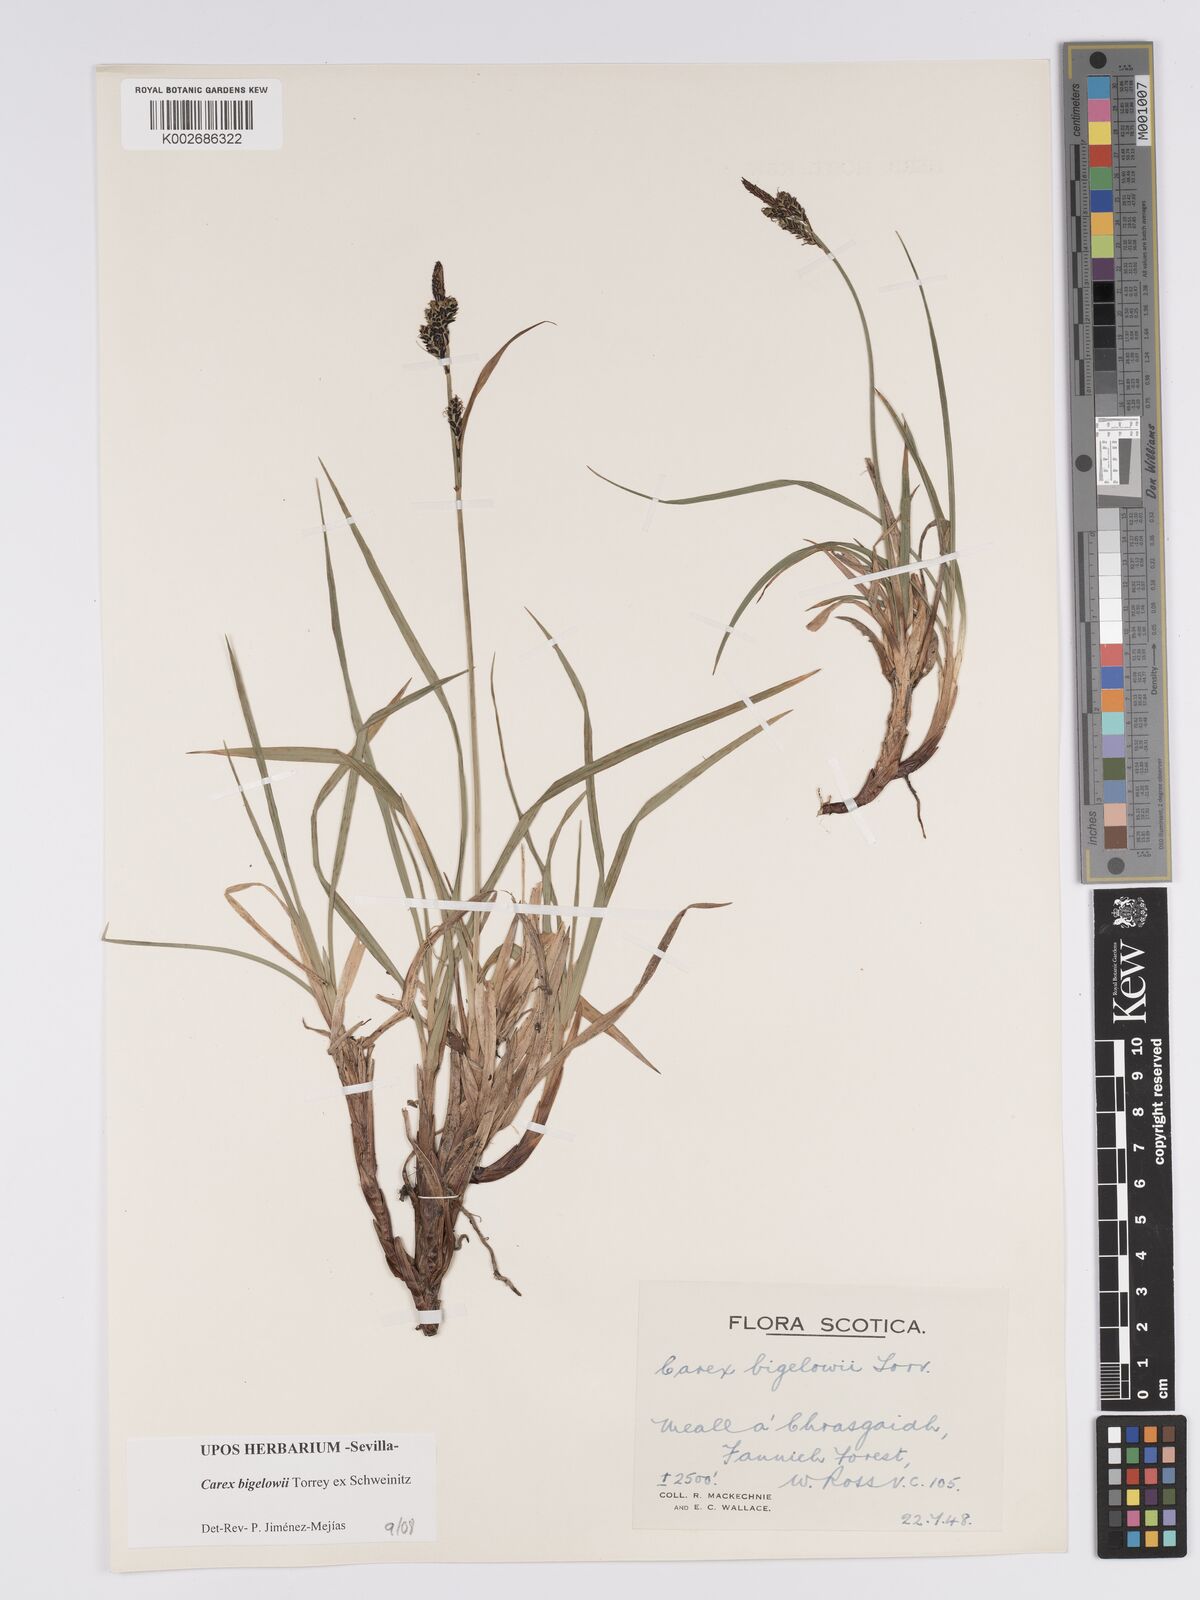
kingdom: Plantae
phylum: Tracheophyta
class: Liliopsida
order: Poales
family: Cyperaceae
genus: Carex
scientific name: Carex bigelowii
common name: Stiff sedge
